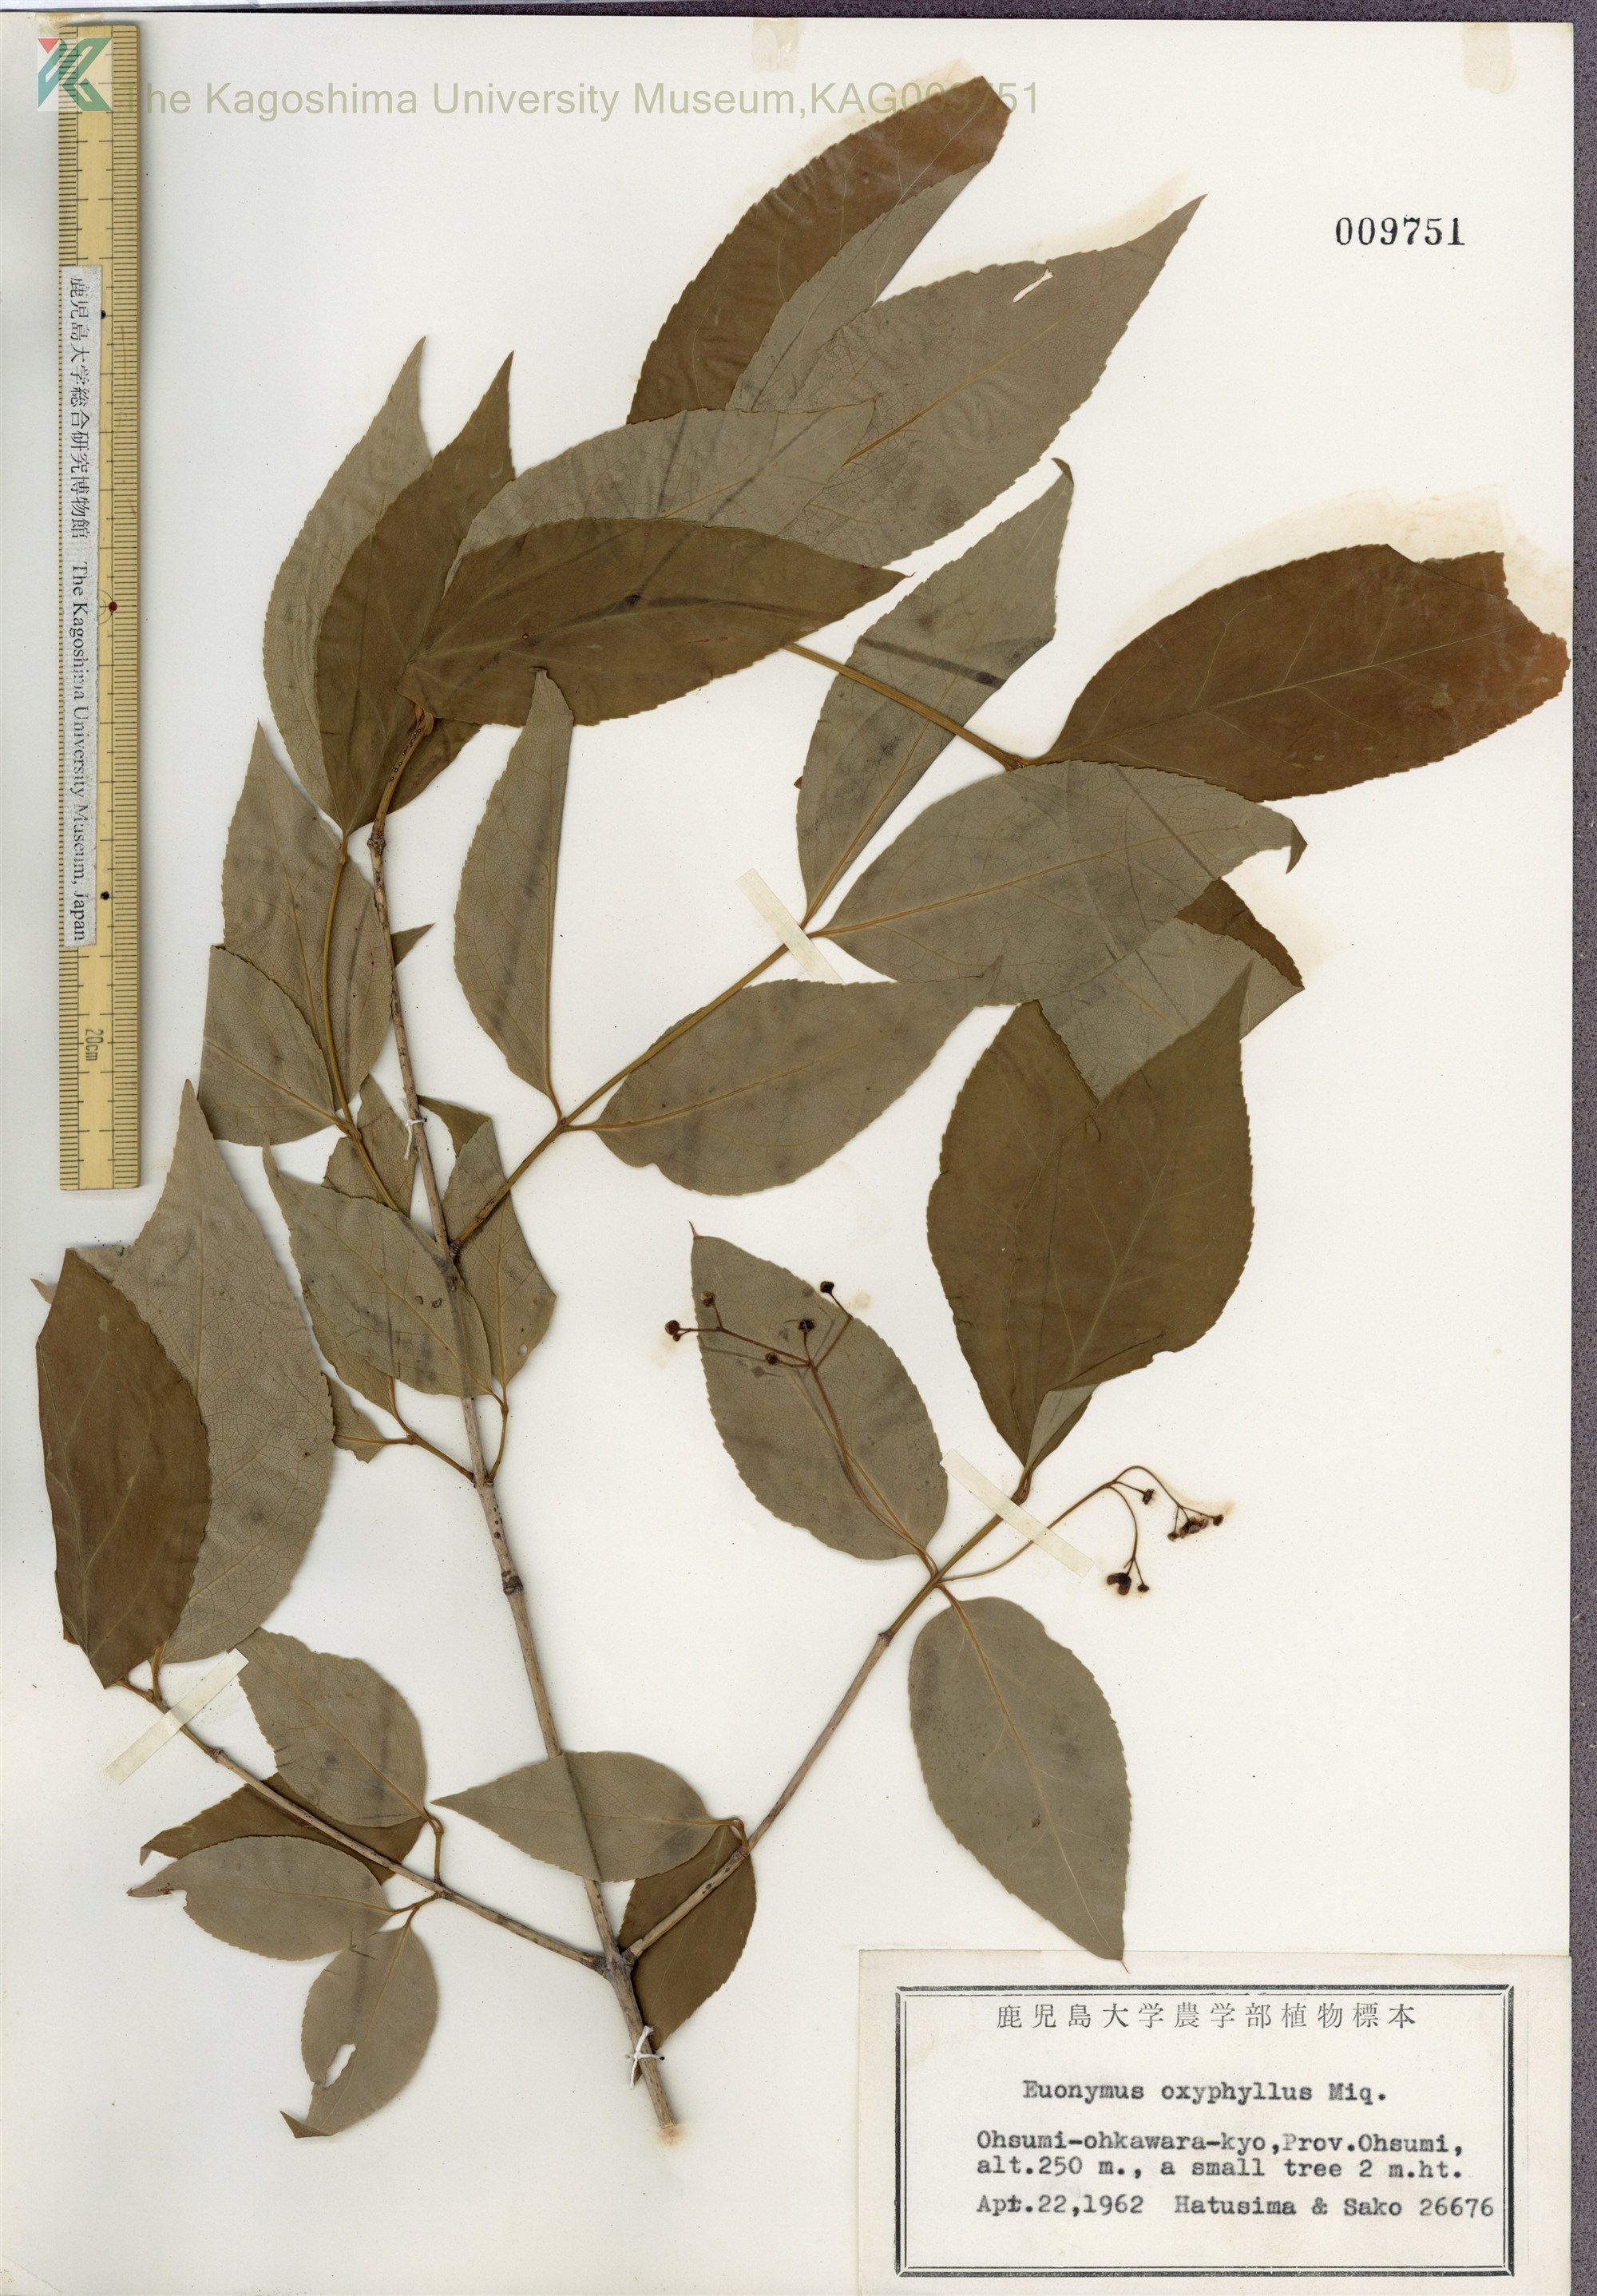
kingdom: Plantae
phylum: Tracheophyta
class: Magnoliopsida
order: Celastrales
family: Celastraceae
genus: Euonymus
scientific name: Euonymus oxyphyllus
